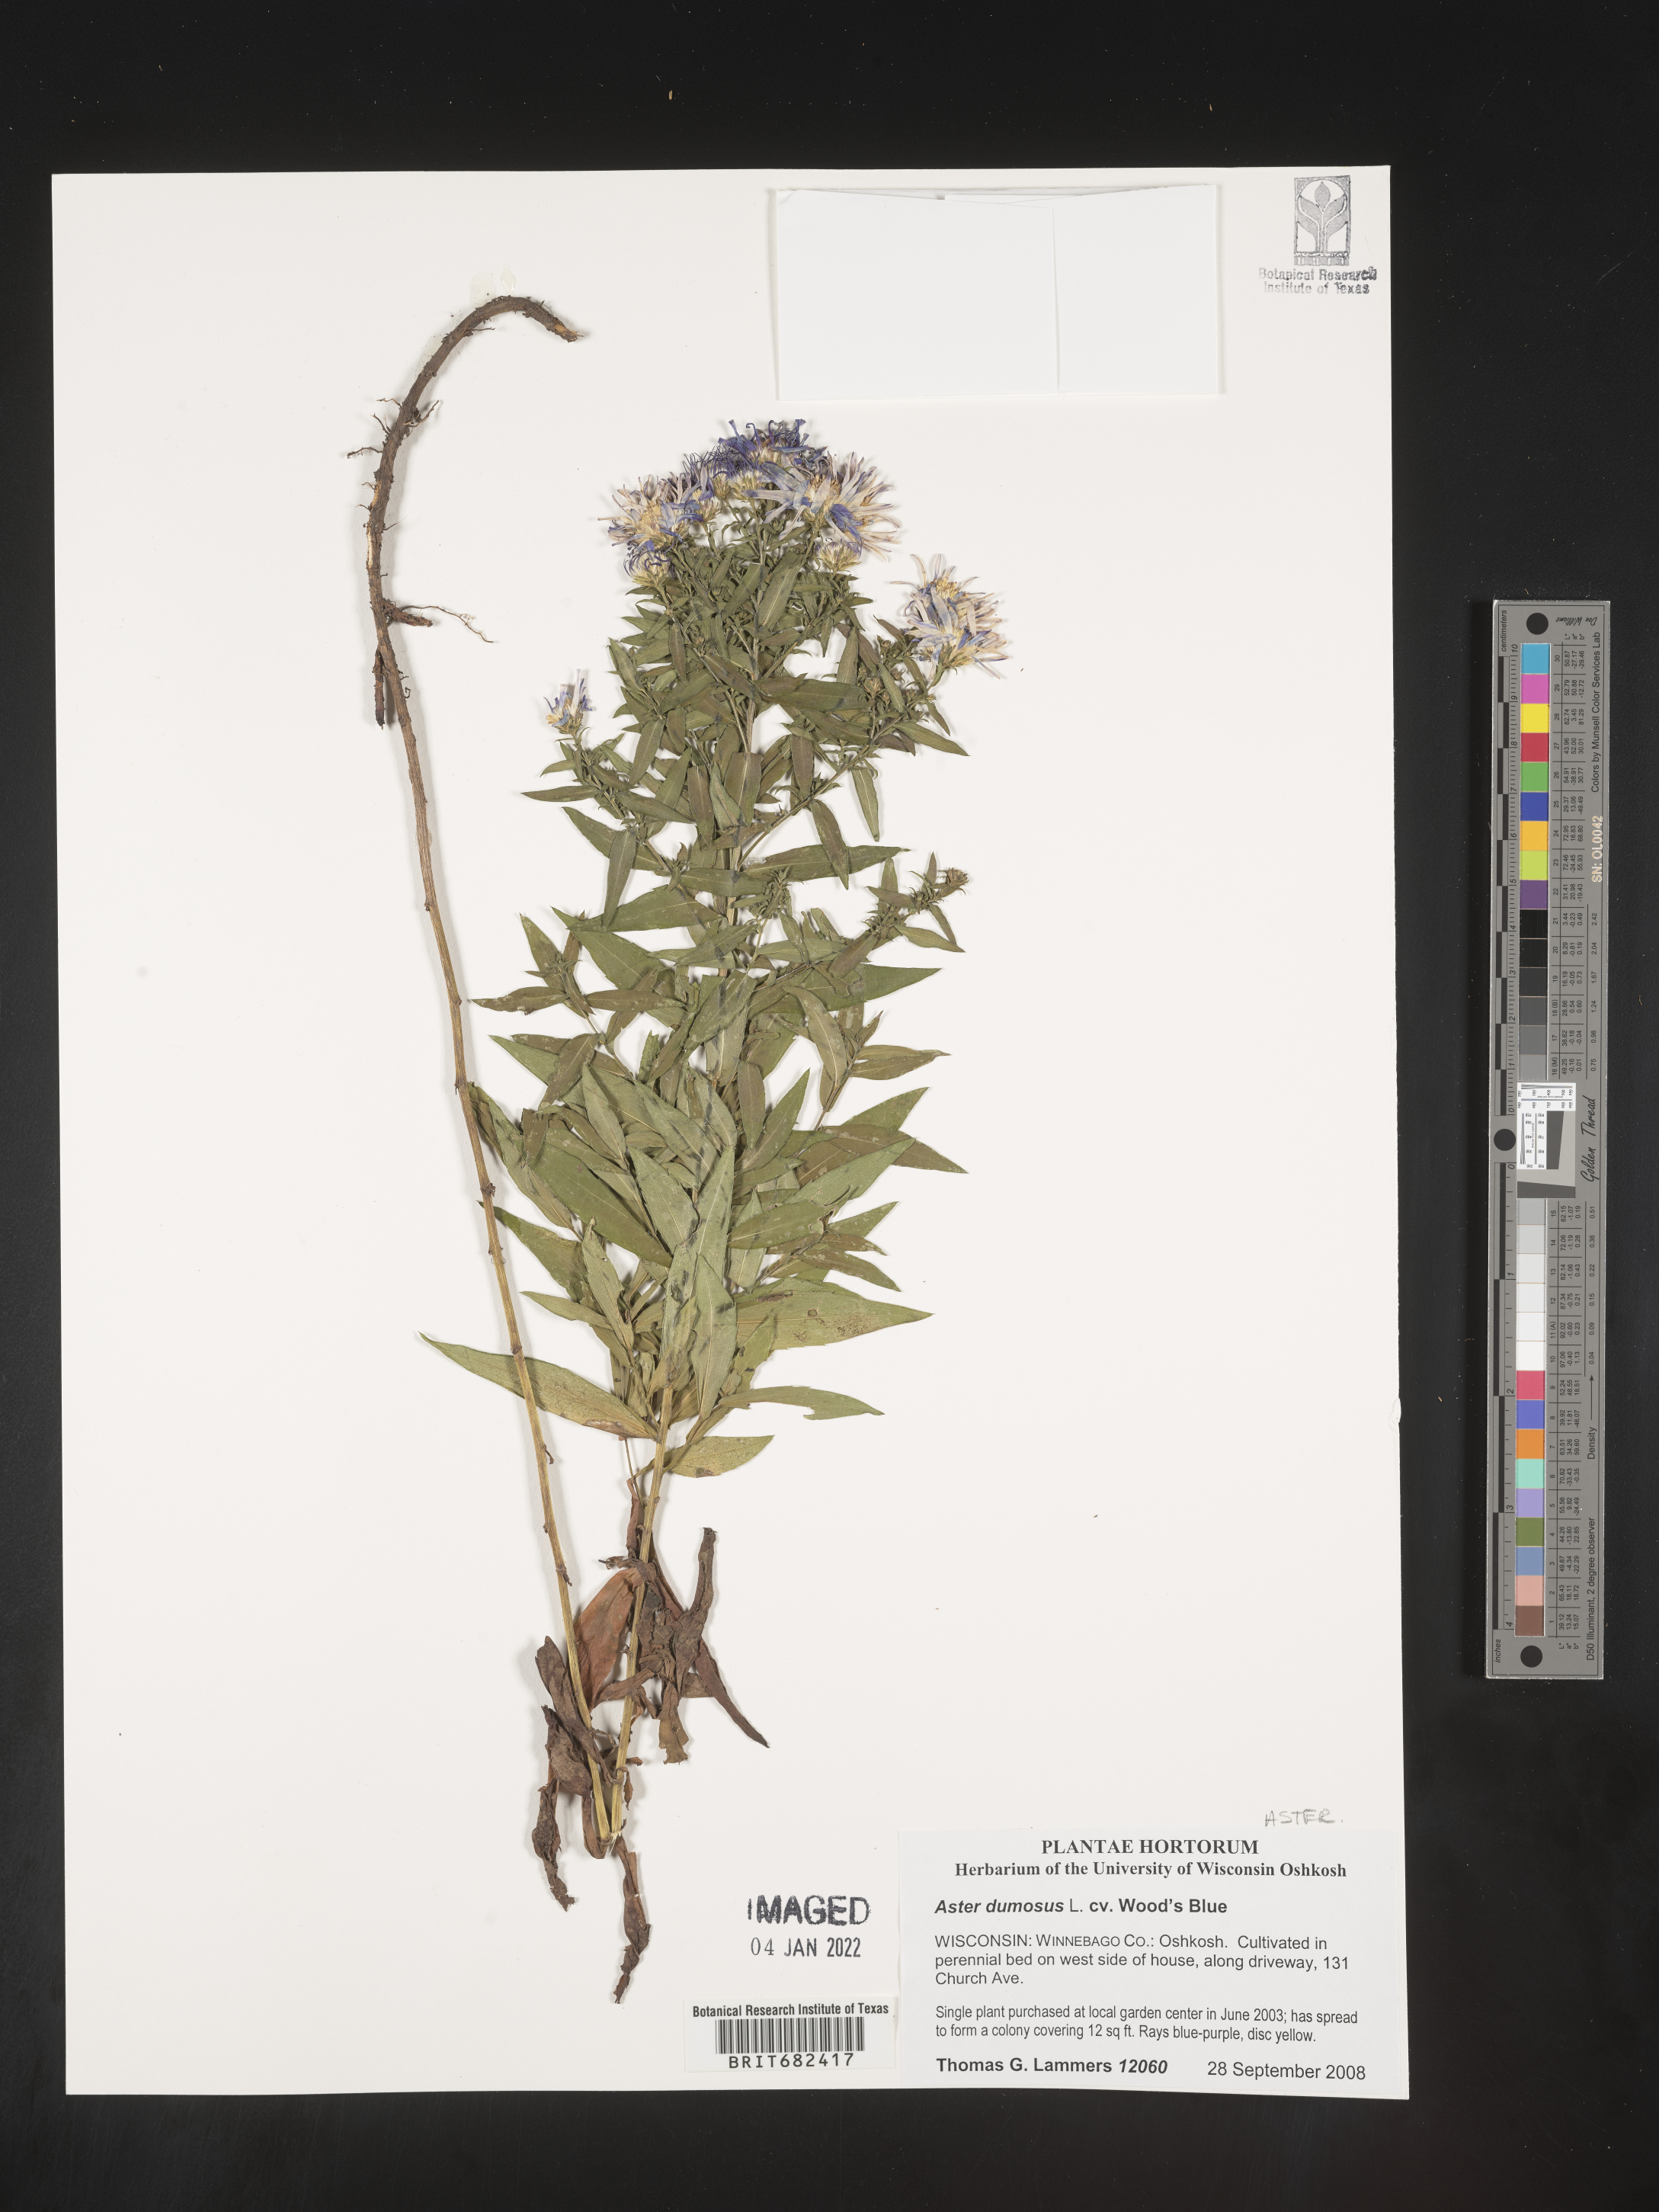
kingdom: Plantae
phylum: Tracheophyta
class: Magnoliopsida
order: Asterales
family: Asteraceae
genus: Aster
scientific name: Aster
